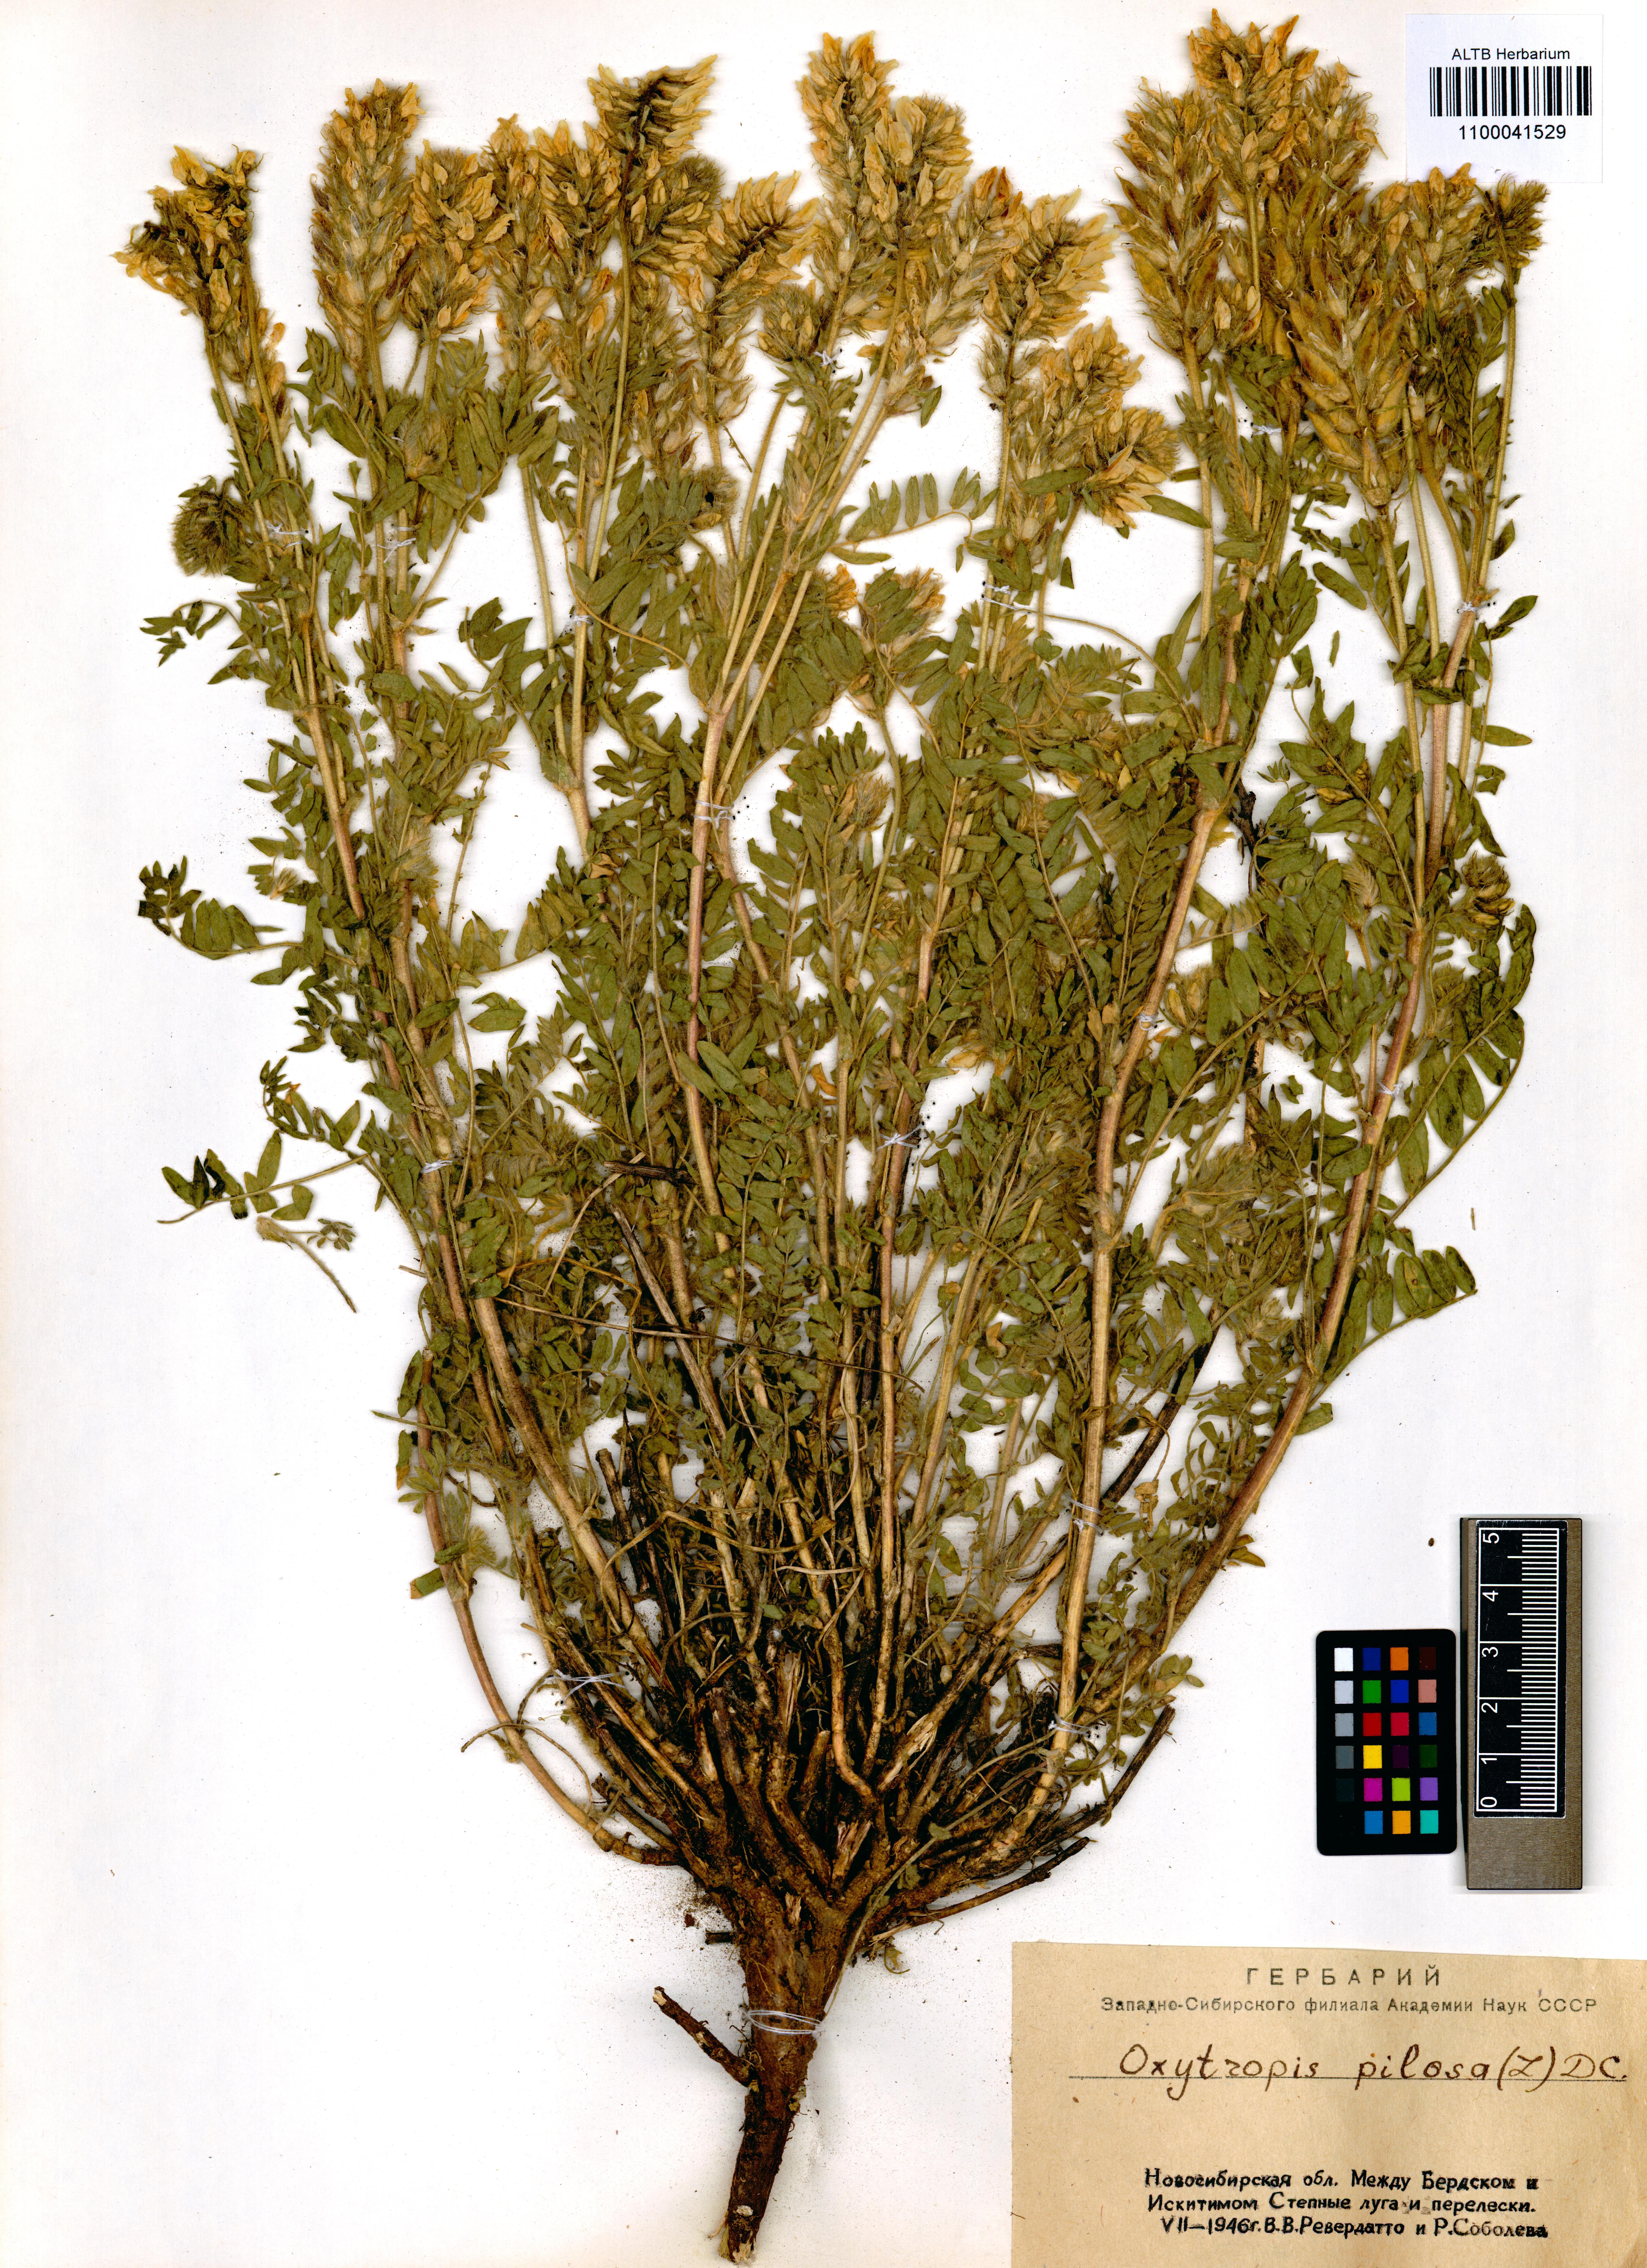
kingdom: Plantae
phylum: Tracheophyta
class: Magnoliopsida
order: Fabales
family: Fabaceae
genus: Oxytropis
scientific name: Oxytropis pilosa
